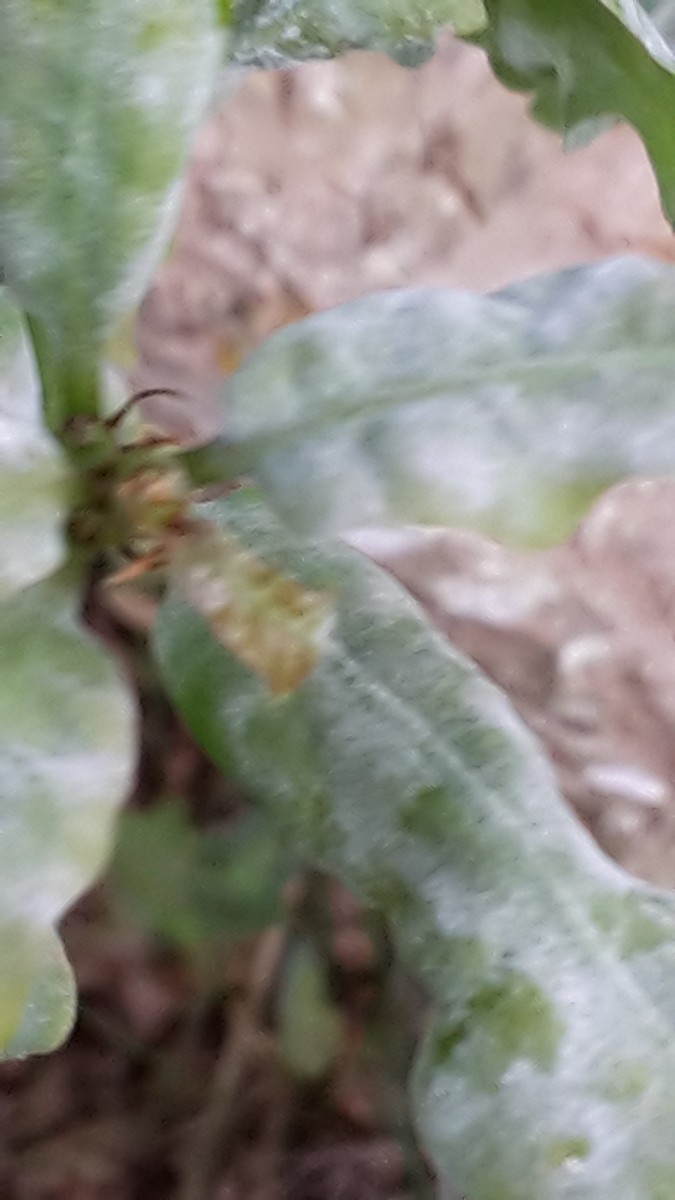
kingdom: Fungi
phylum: Ascomycota
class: Leotiomycetes
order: Helotiales
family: Erysiphaceae
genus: Erysiphe
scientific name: Erysiphe alphitoides
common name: ege-meldug
